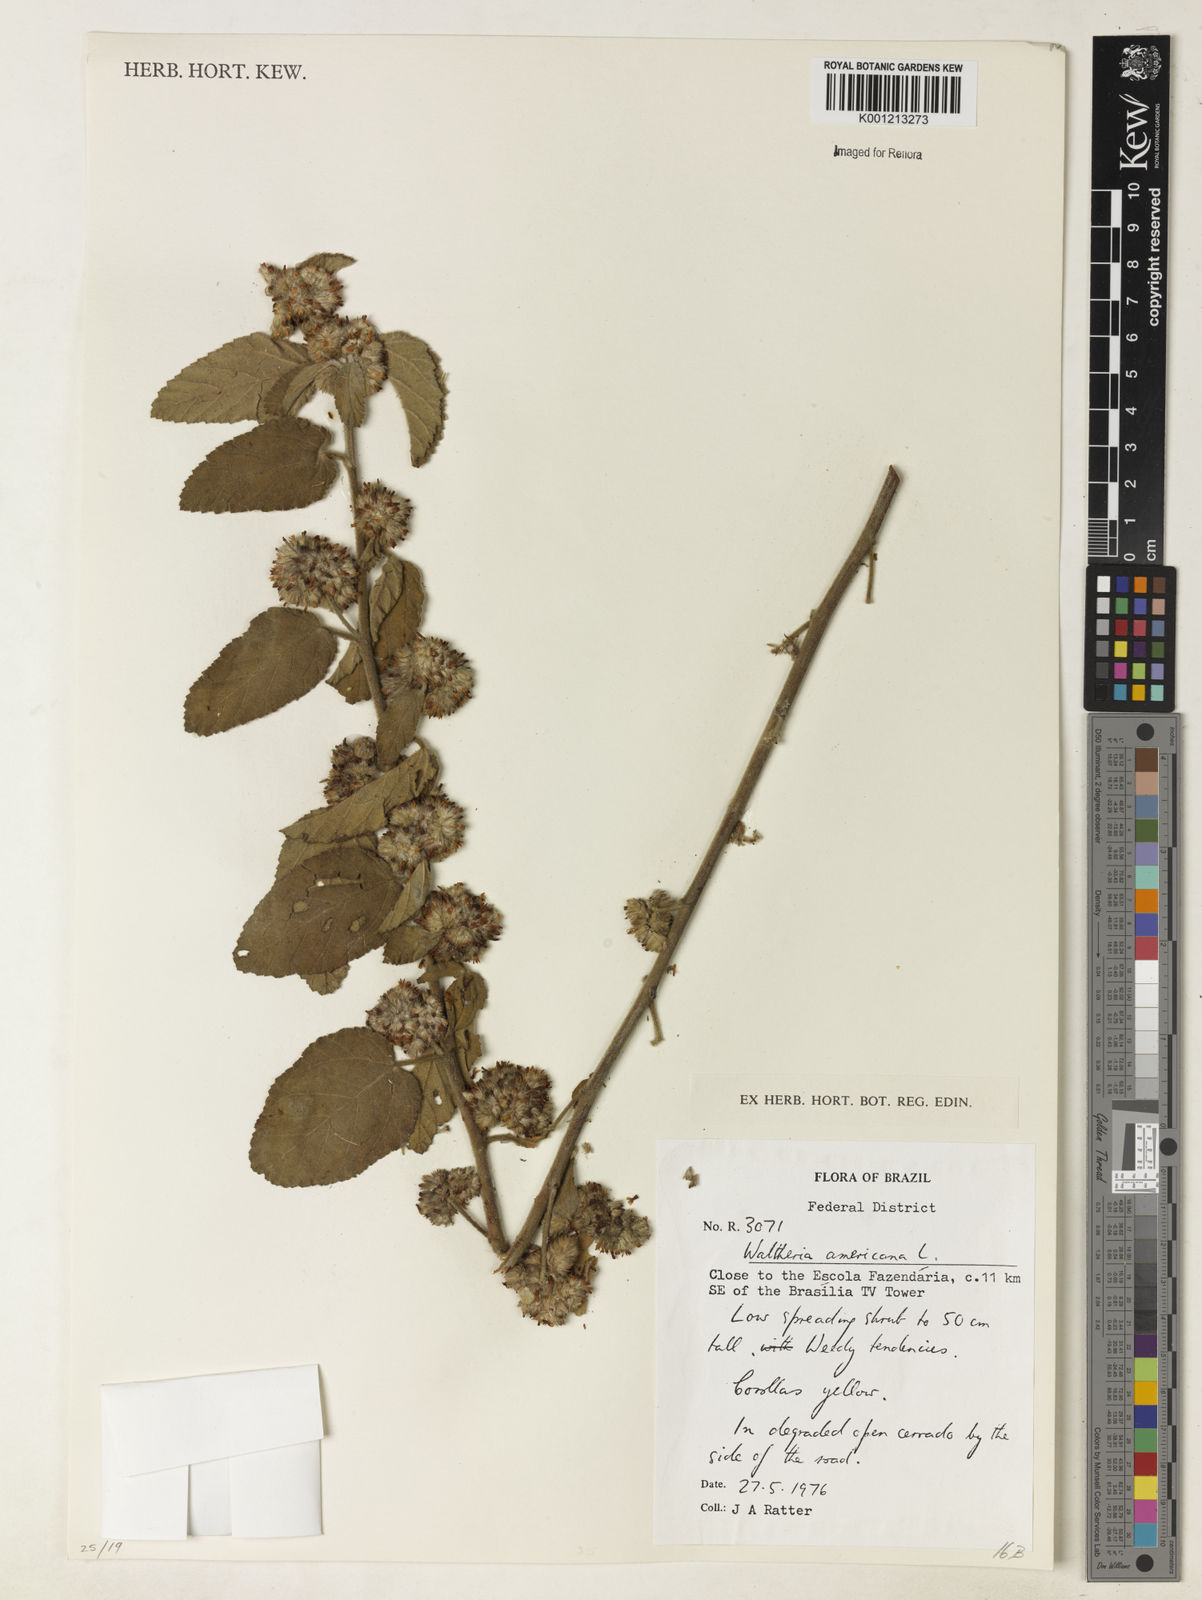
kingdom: Plantae
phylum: Tracheophyta
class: Magnoliopsida
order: Malvales
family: Malvaceae
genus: Waltheria
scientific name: Waltheria indica
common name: Leather-coat
